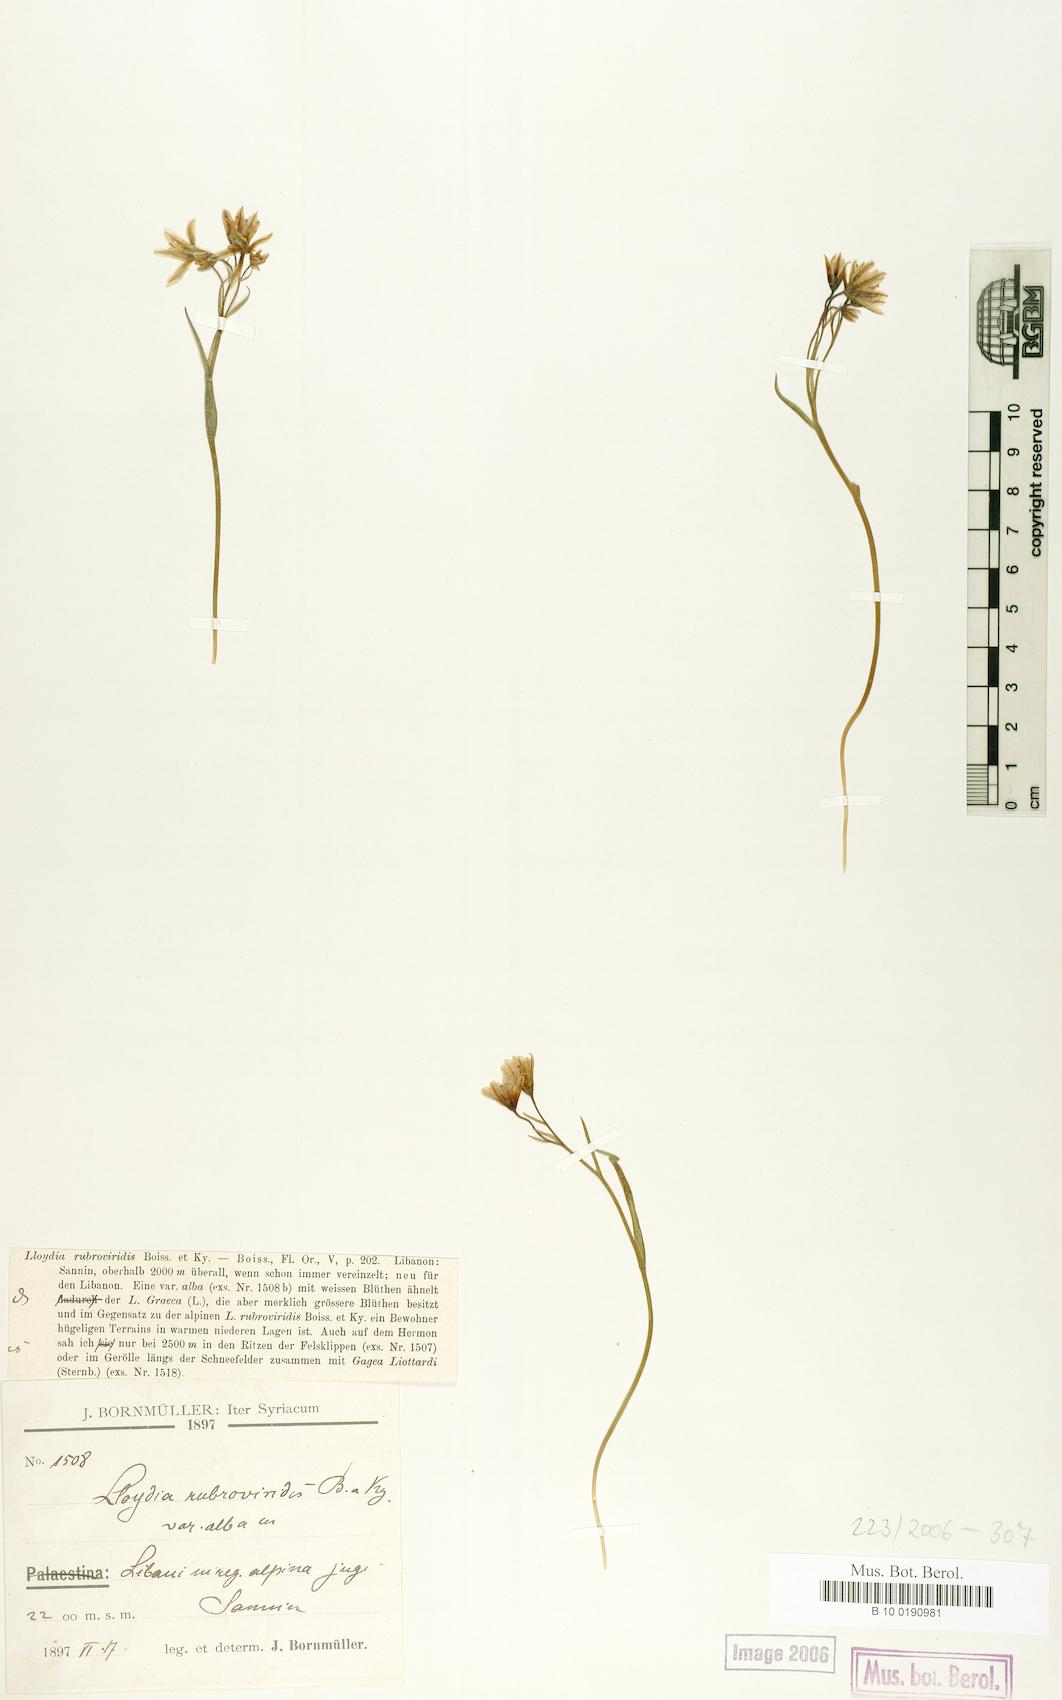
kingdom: Plantae
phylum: Tracheophyta
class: Liliopsida
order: Liliales
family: Liliaceae
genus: Gagea
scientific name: Gagea libanotica
